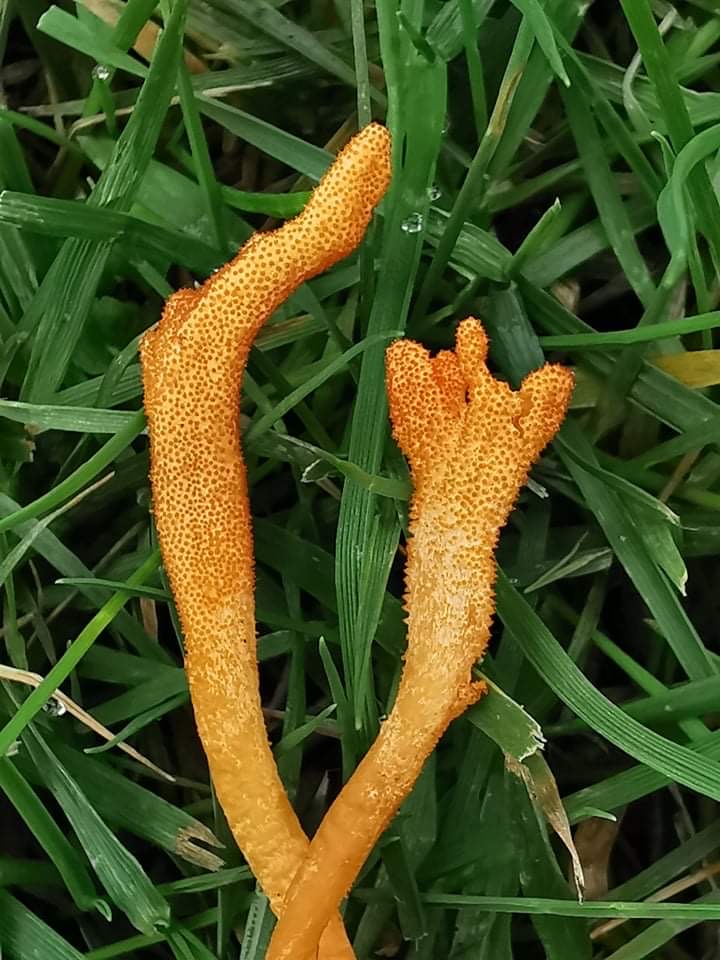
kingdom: Fungi
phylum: Ascomycota
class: Sordariomycetes
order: Hypocreales
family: Cordycipitaceae
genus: Cordyceps
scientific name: Cordyceps militaris
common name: puppe-snyltekølle
